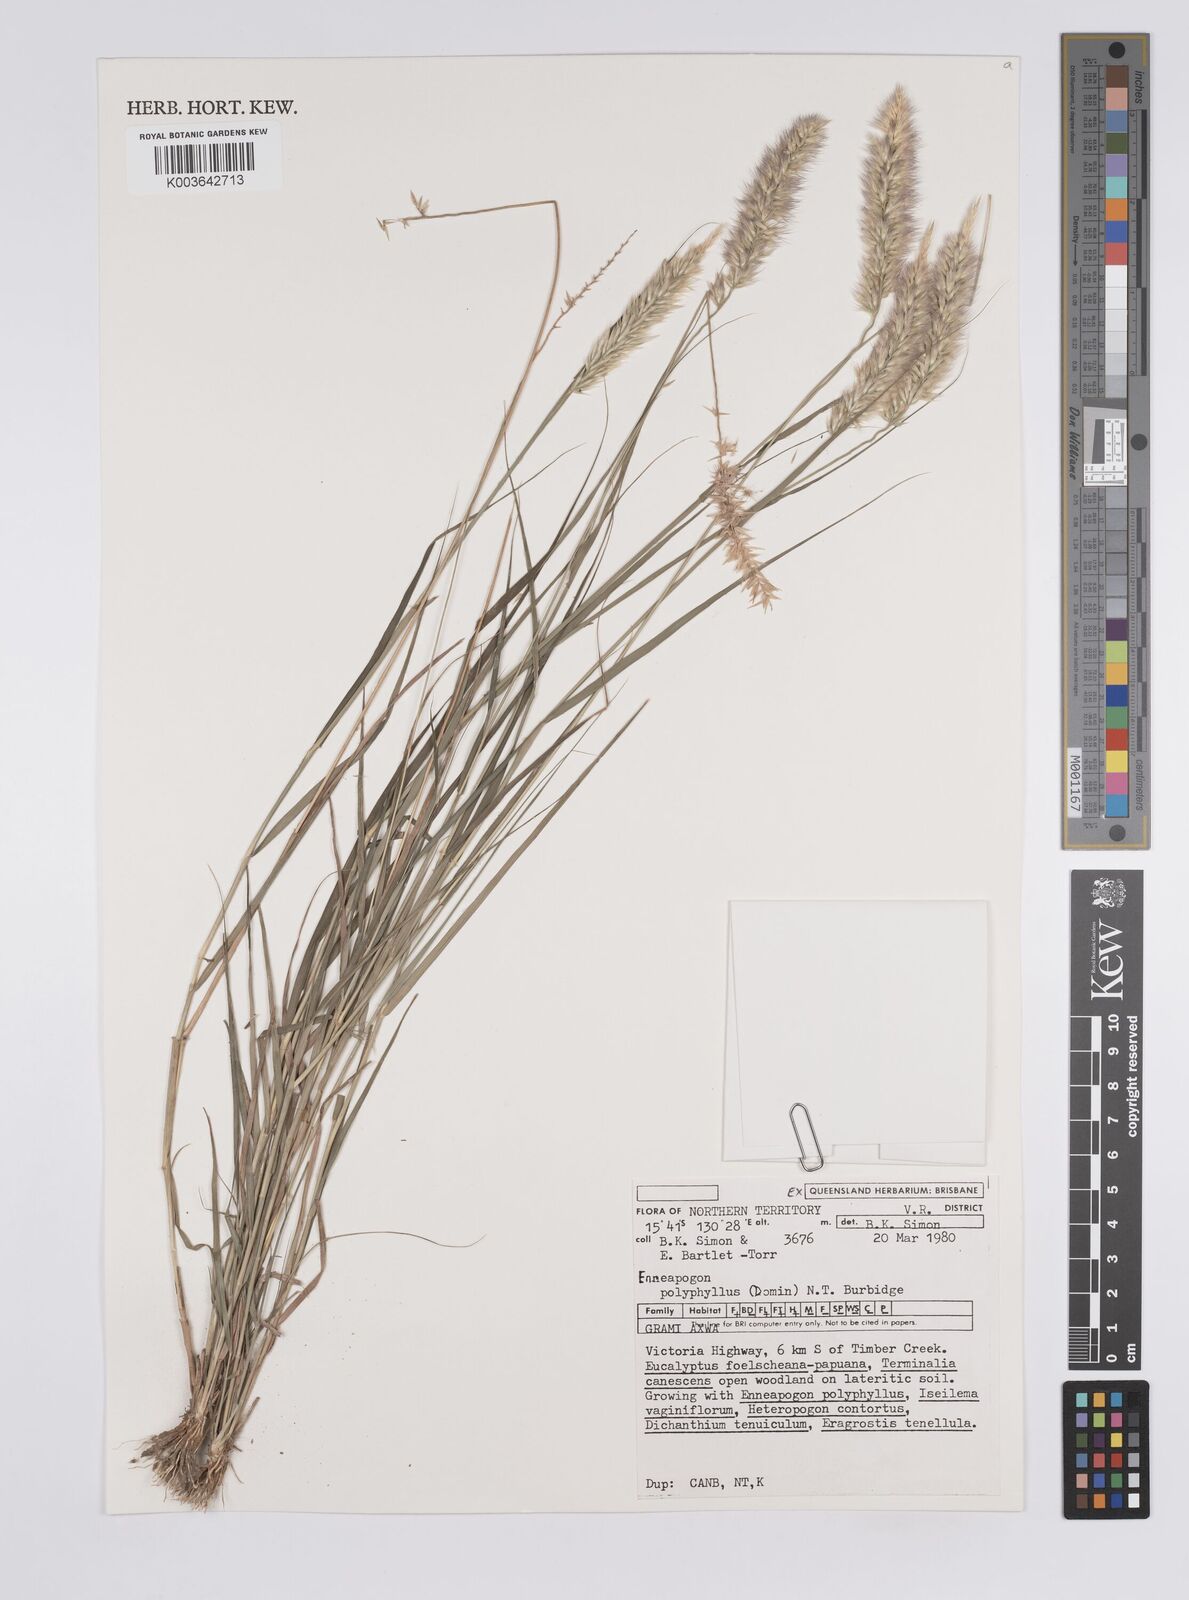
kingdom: Plantae
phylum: Tracheophyta
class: Liliopsida
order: Poales
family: Poaceae
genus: Enneapogon
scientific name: Enneapogon polyphyllus
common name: Leafy nineawn
